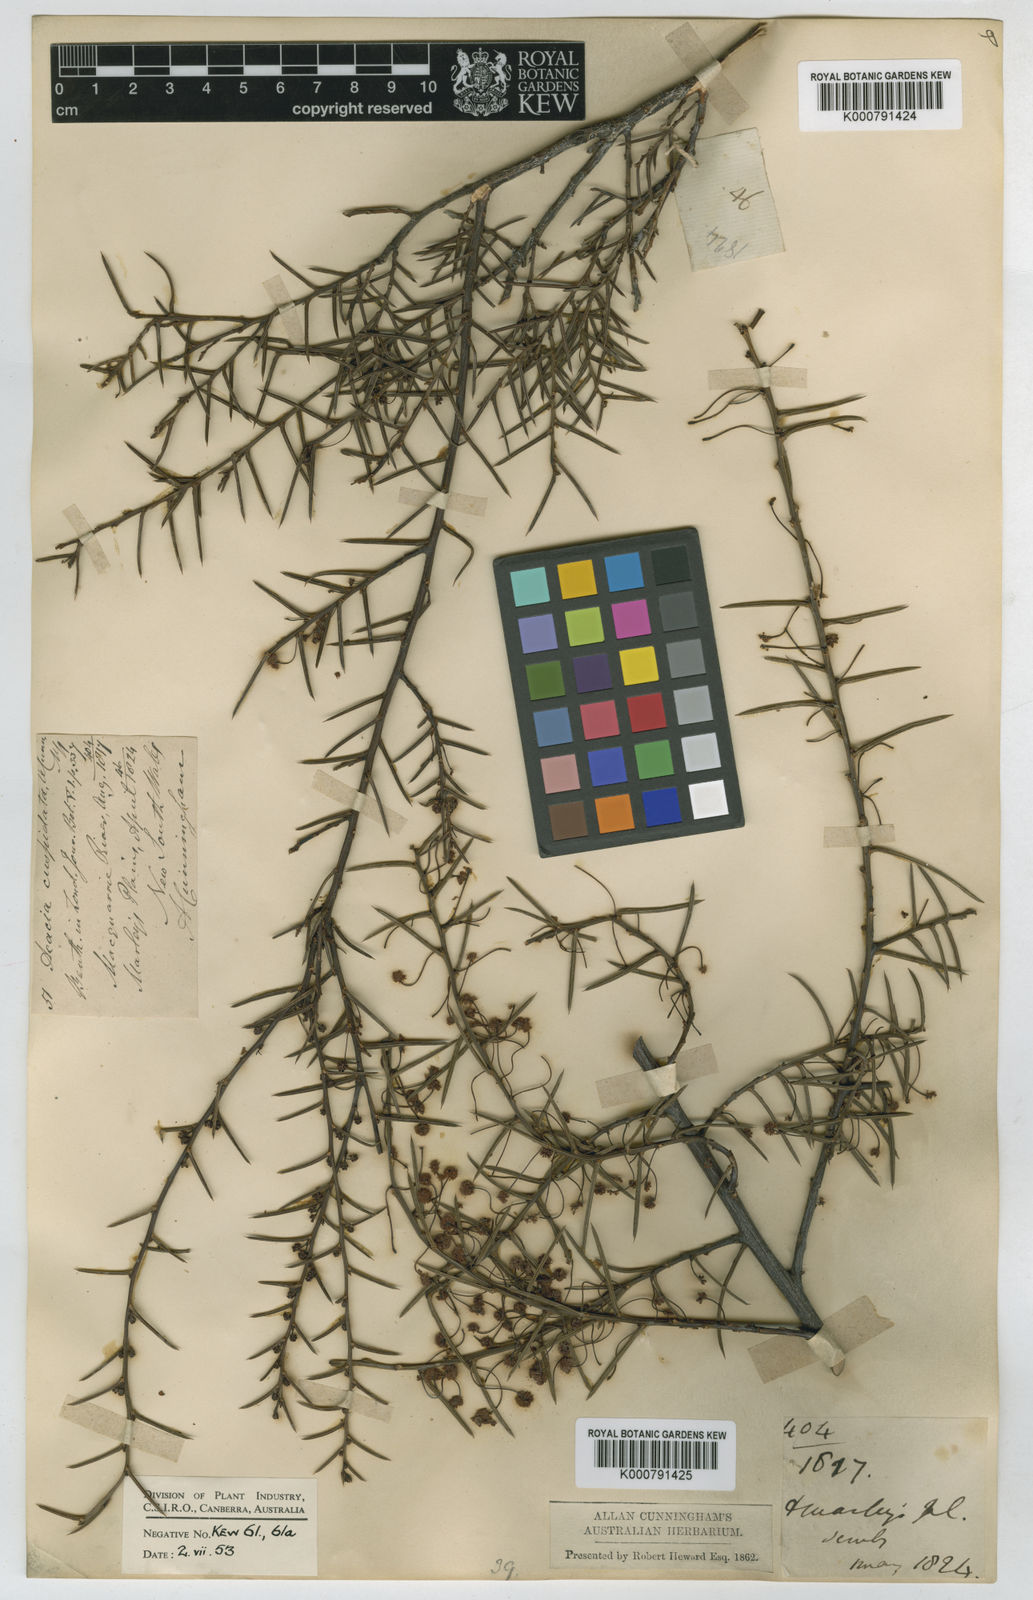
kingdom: Plantae
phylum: Tracheophyta
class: Magnoliopsida
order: Fabales
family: Fabaceae
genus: Acacia
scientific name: Acacia
